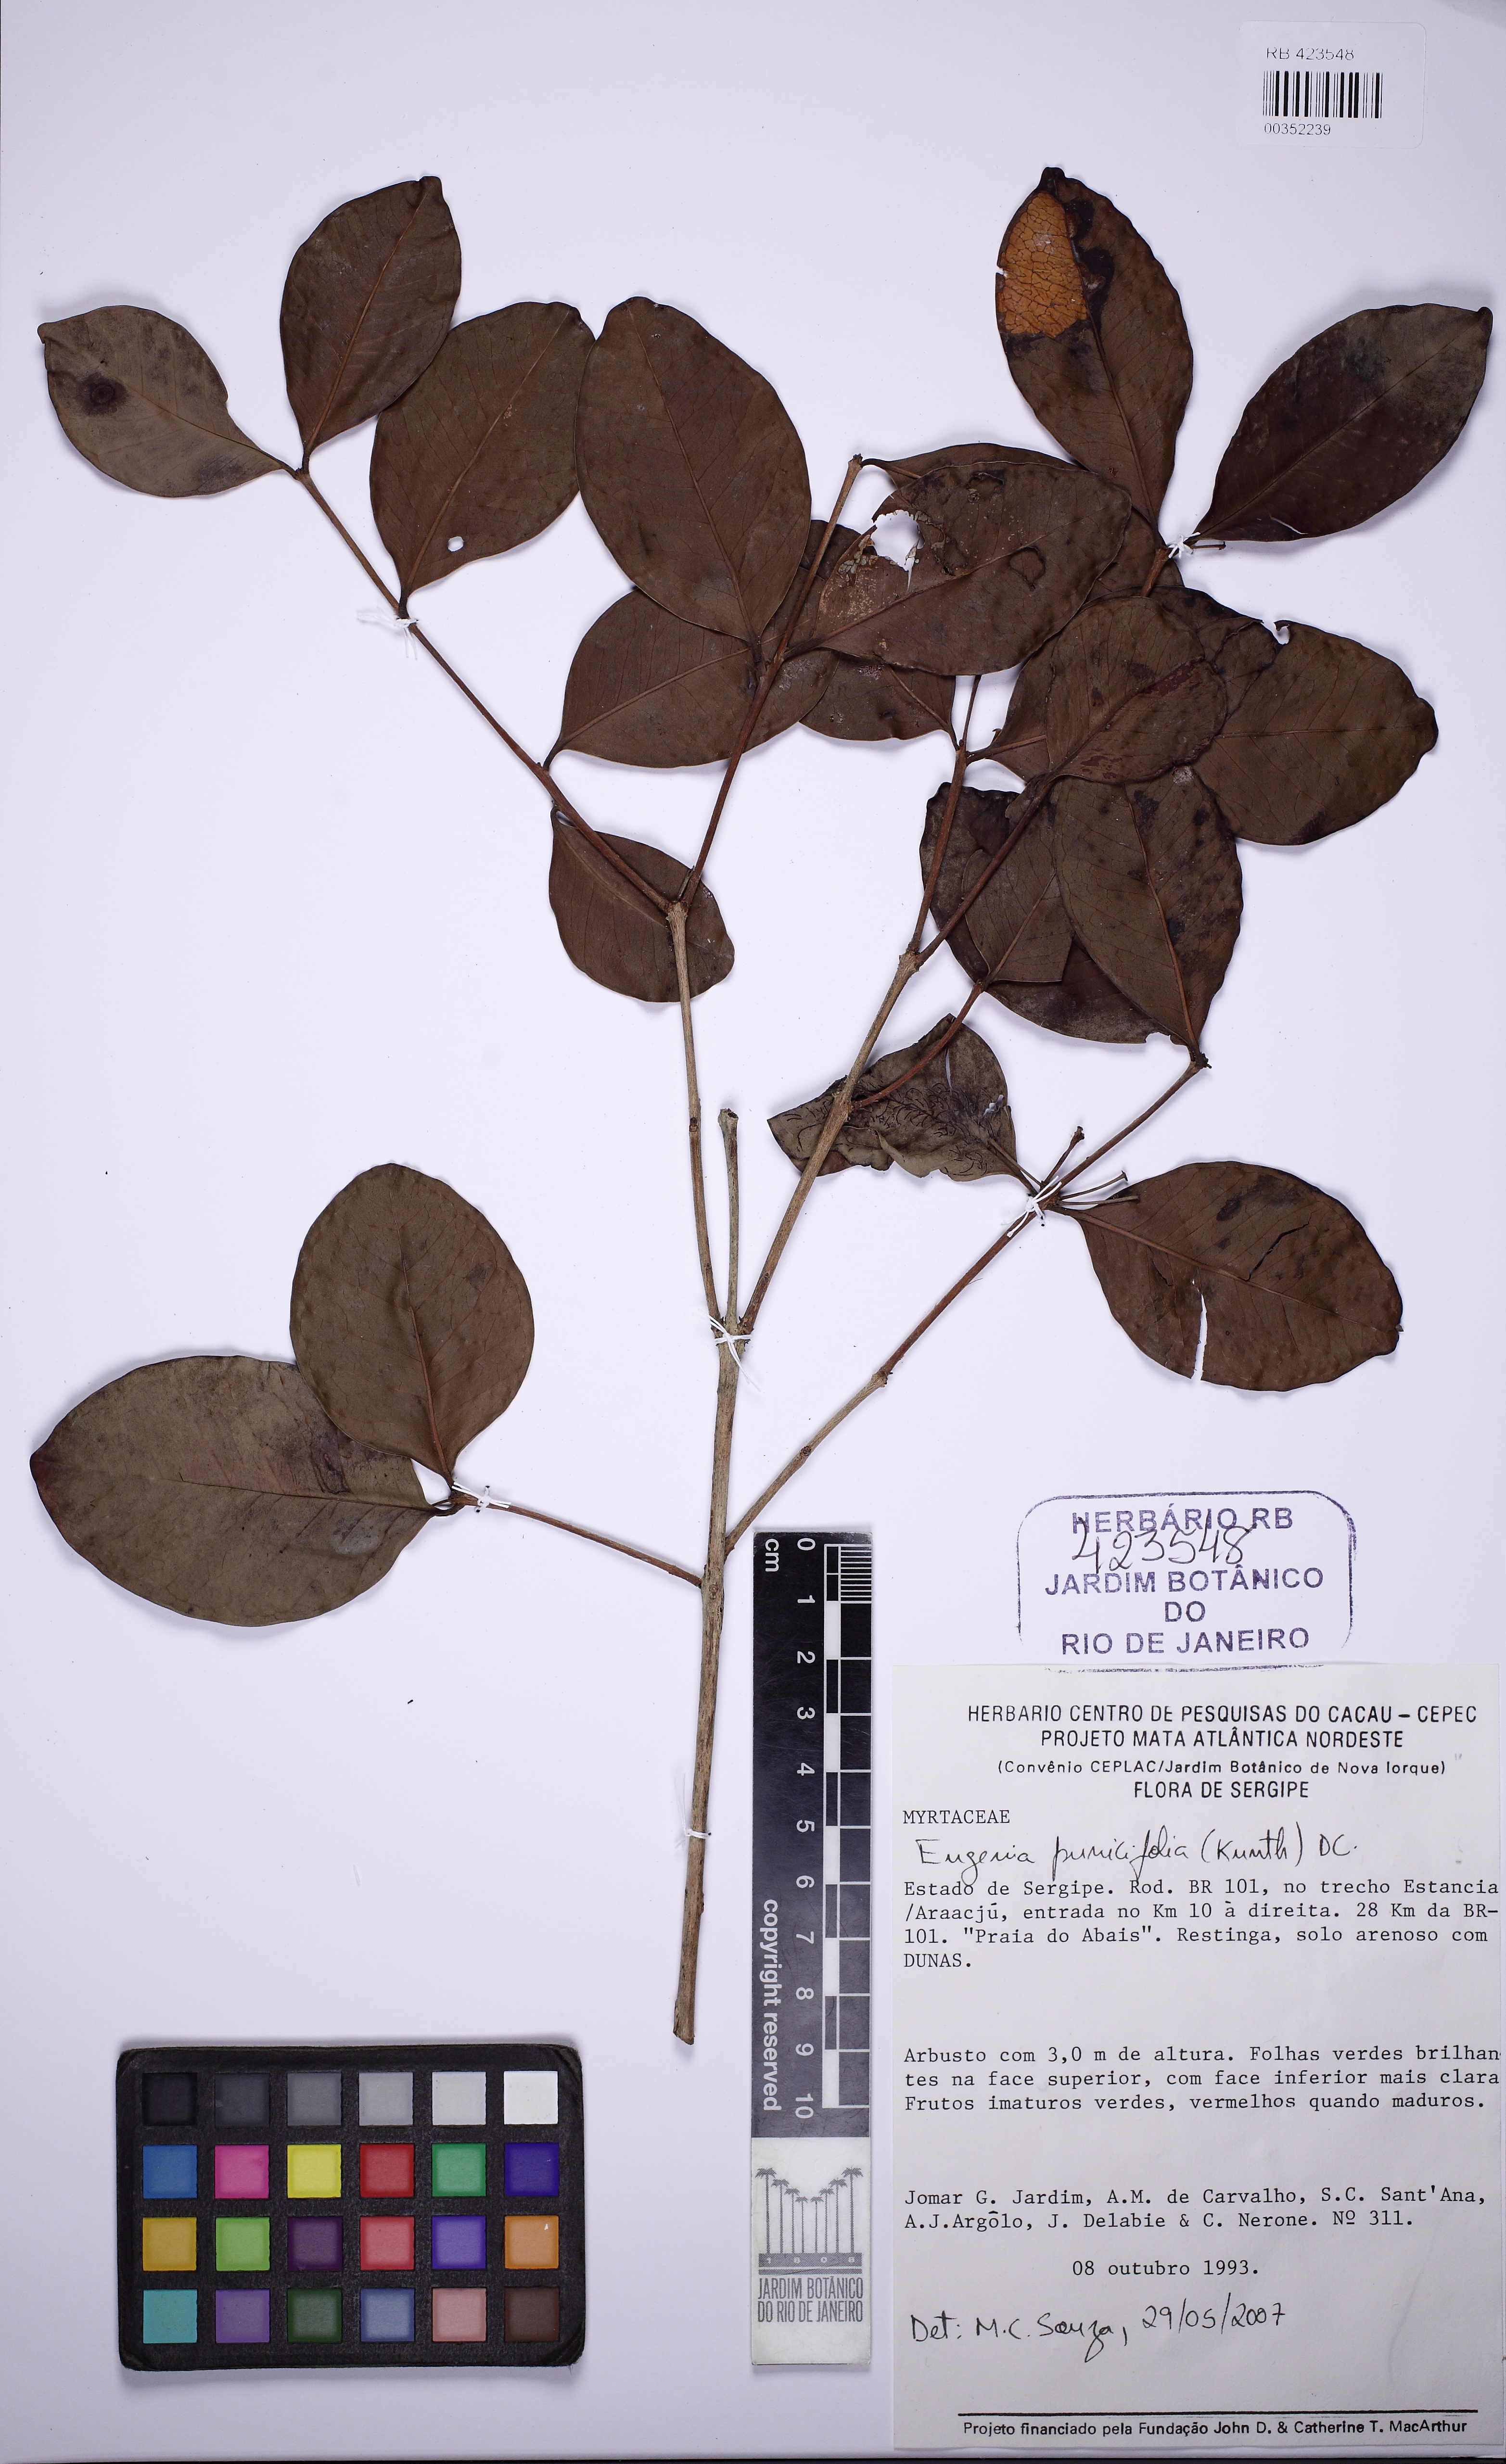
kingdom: Plantae
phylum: Tracheophyta
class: Magnoliopsida
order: Myrtales
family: Myrtaceae
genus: Eugenia
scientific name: Eugenia punicifolia
